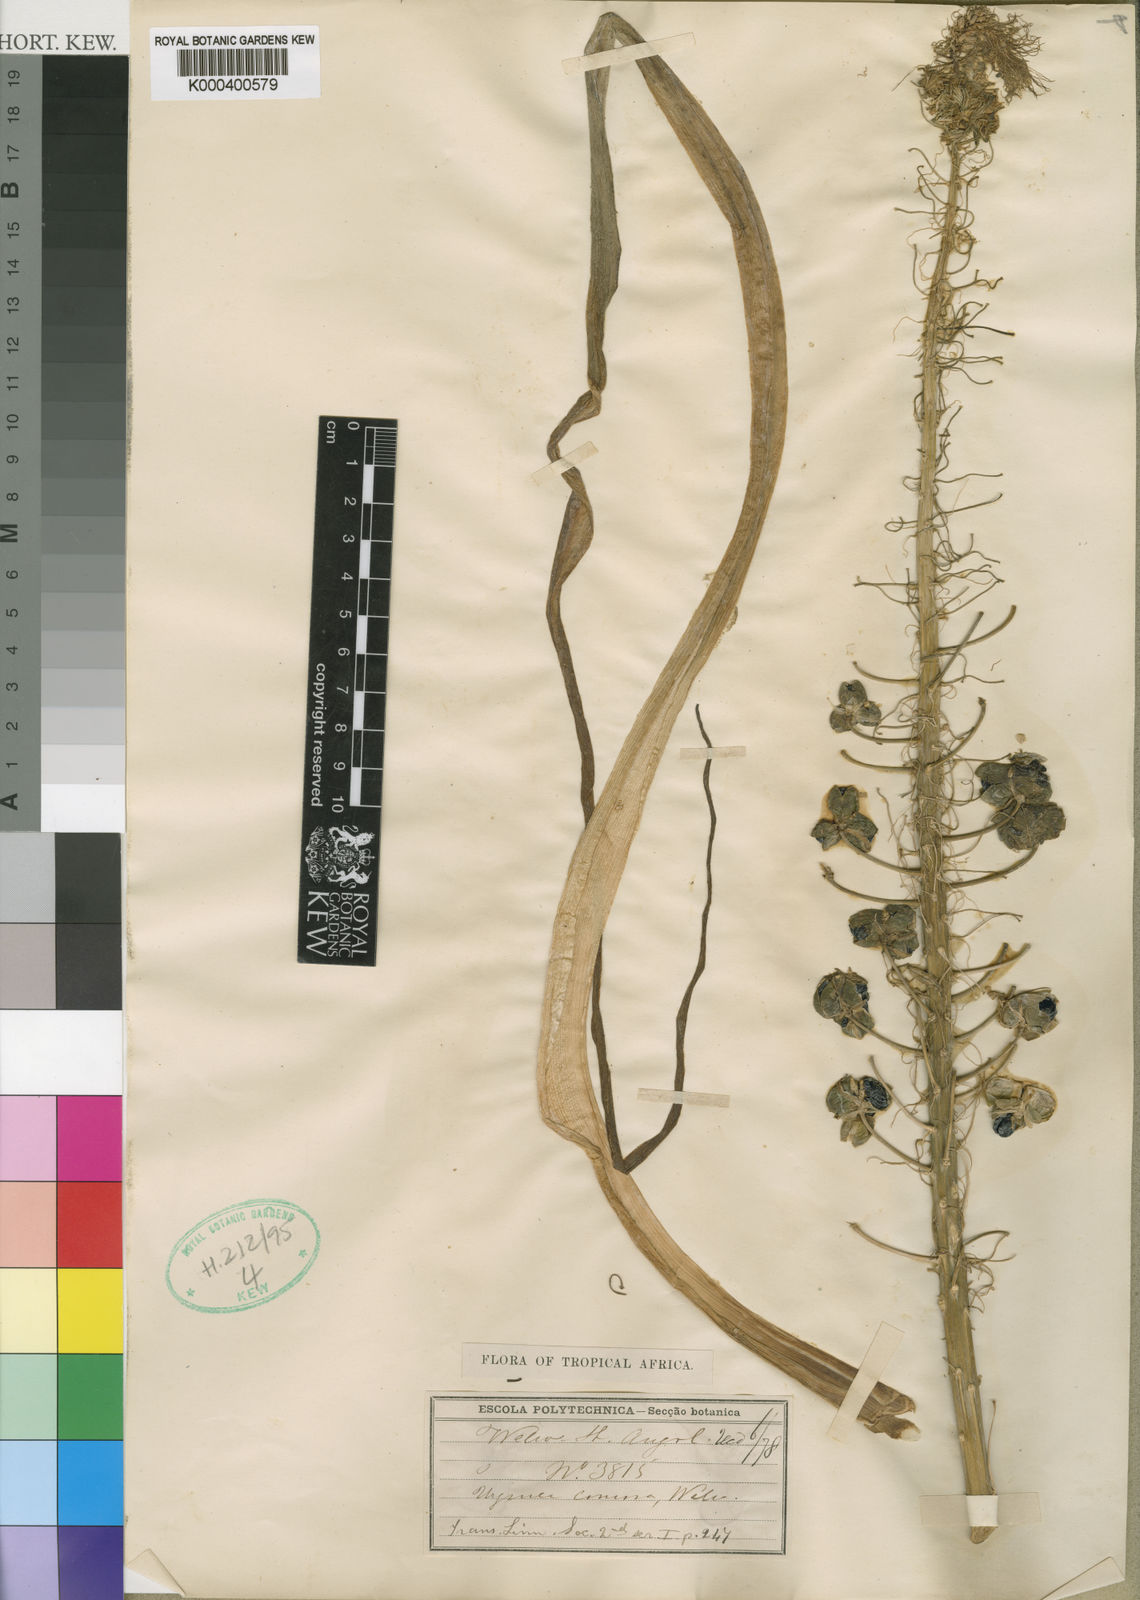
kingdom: Plantae
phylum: Tracheophyta
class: Liliopsida
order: Asparagales
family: Asparagaceae
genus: Albuca
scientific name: Albuca comosa
